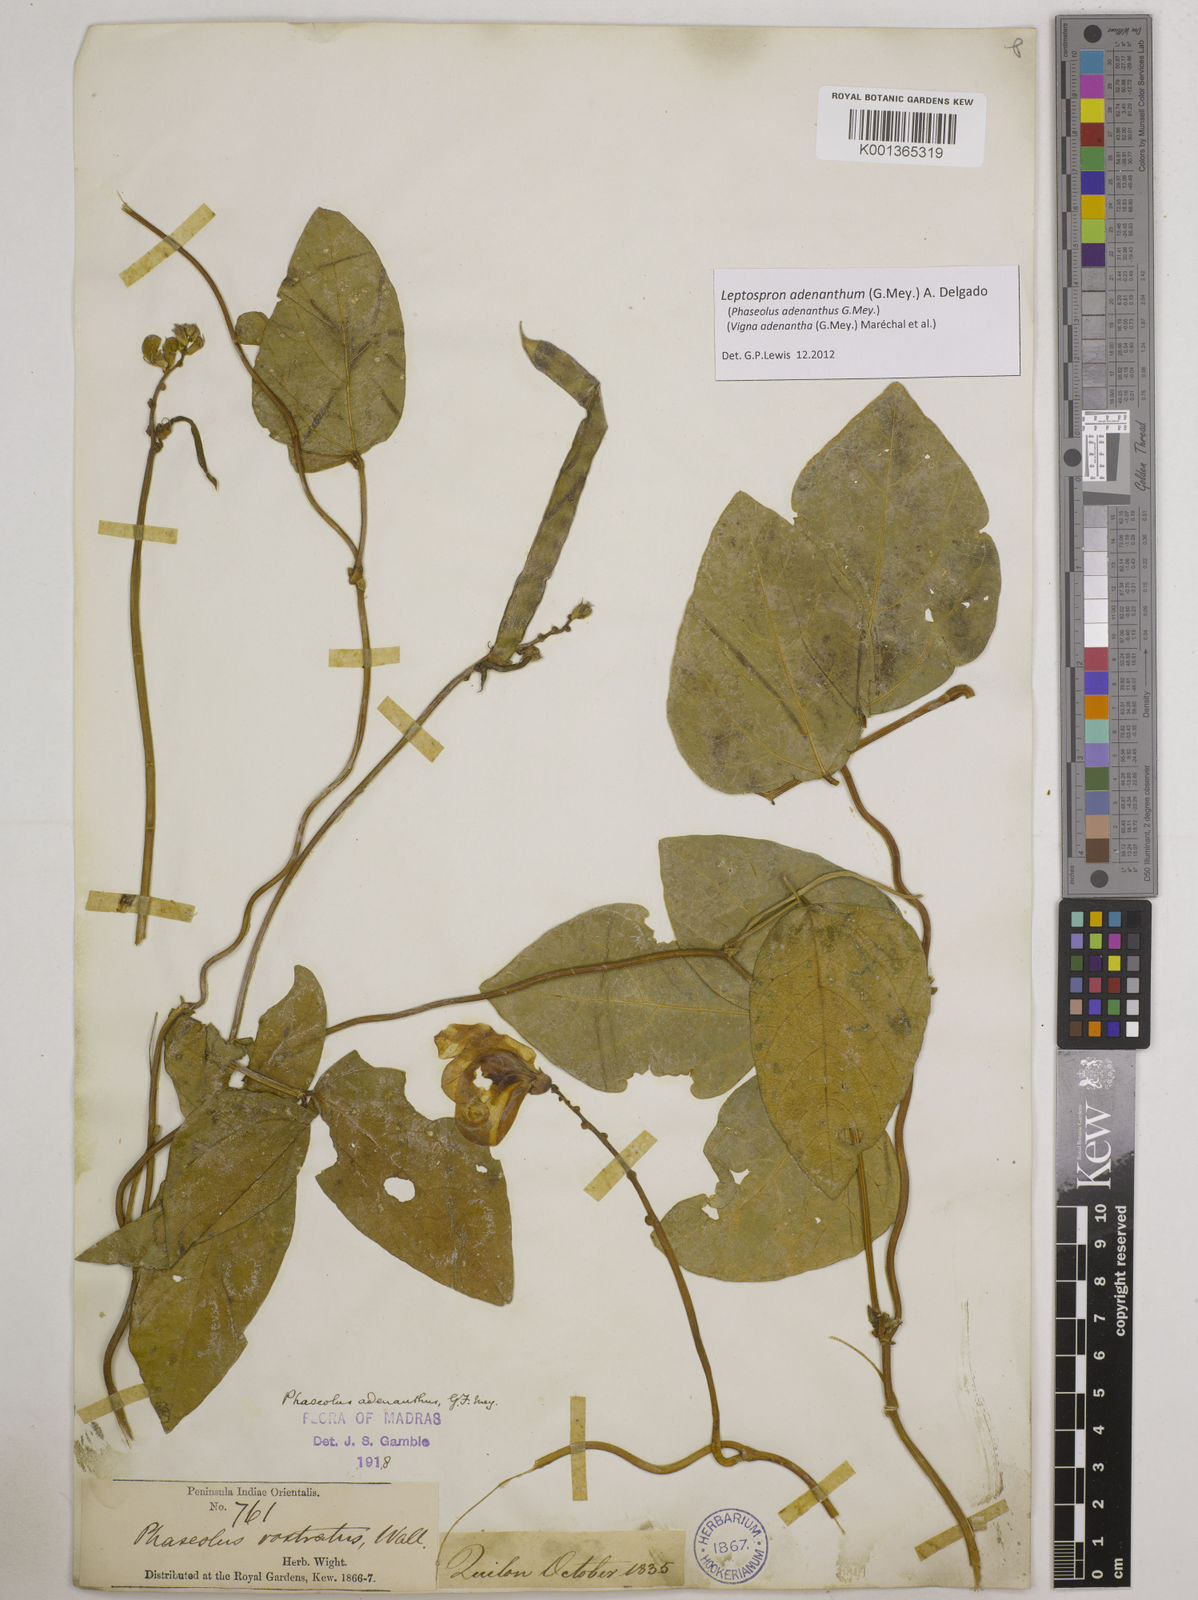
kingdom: Plantae
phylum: Tracheophyta
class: Magnoliopsida
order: Fabales
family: Fabaceae
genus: Leptospron
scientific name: Leptospron adenanthum
